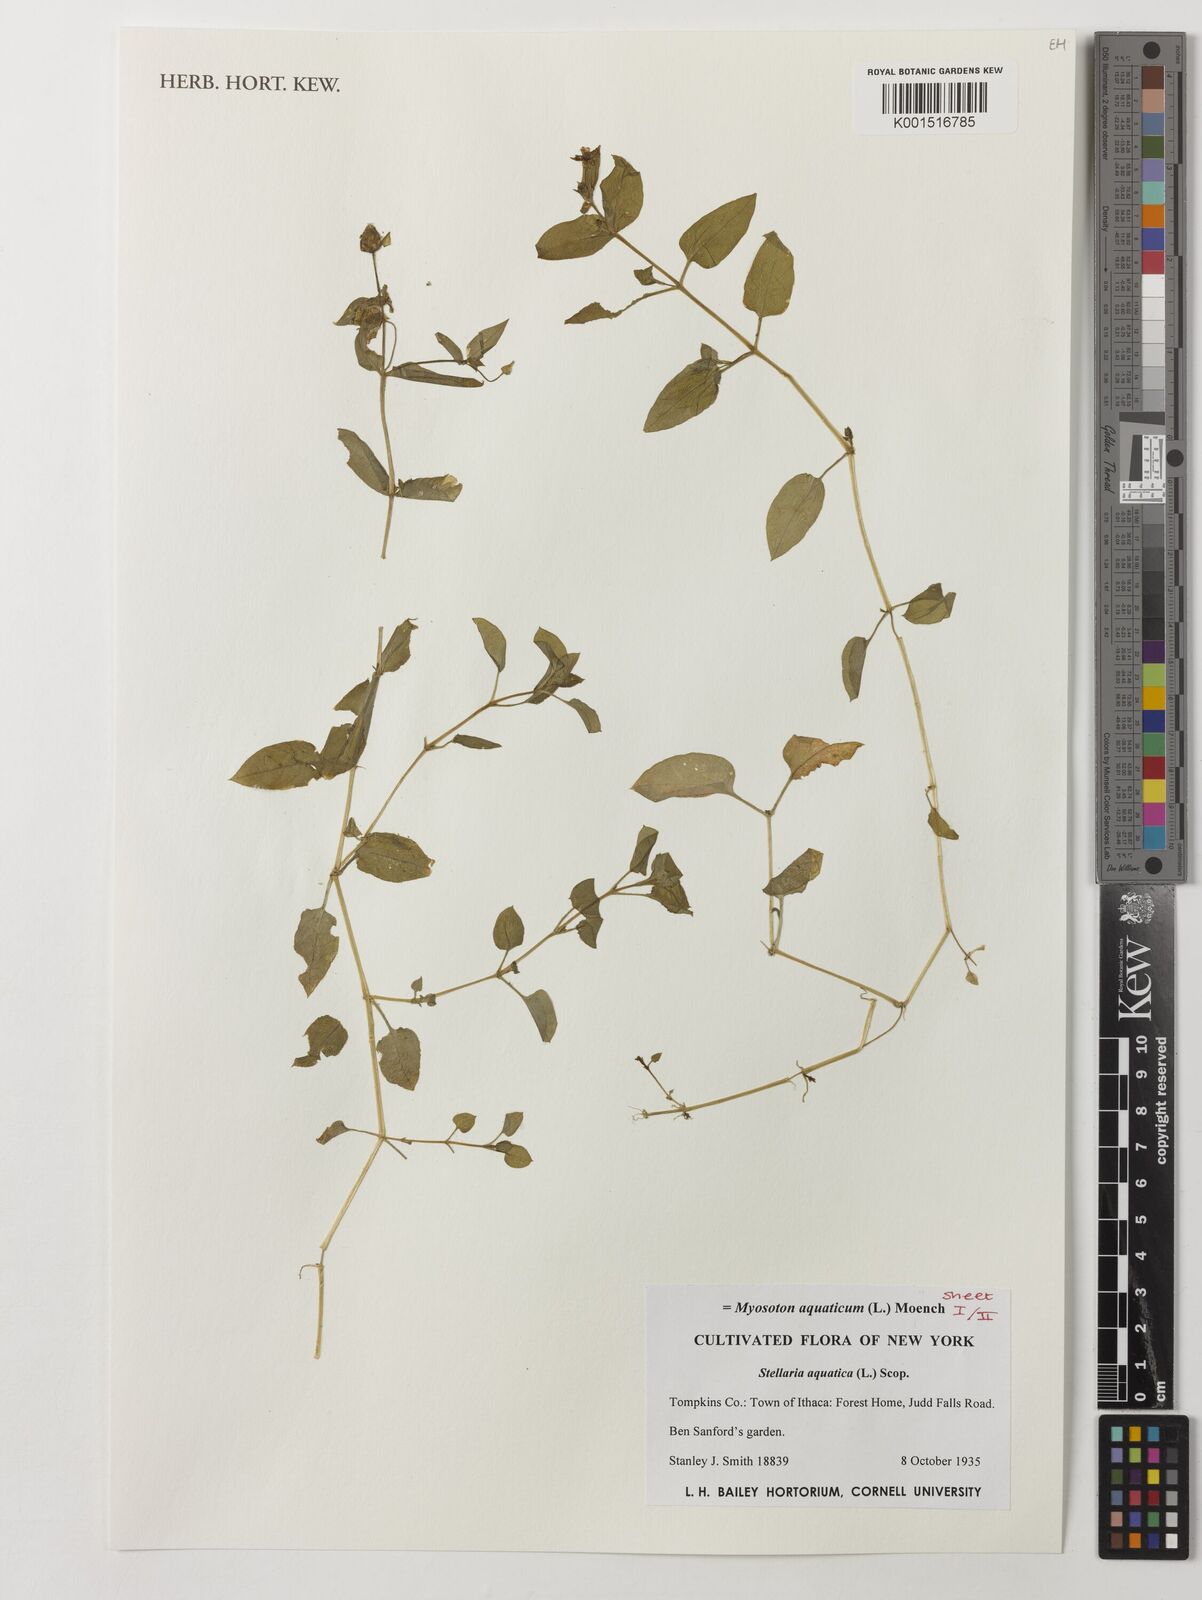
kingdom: Plantae
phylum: Tracheophyta
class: Magnoliopsida
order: Caryophyllales
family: Caryophyllaceae
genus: Stellaria
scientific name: Stellaria aquatica
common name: Water chickweed
